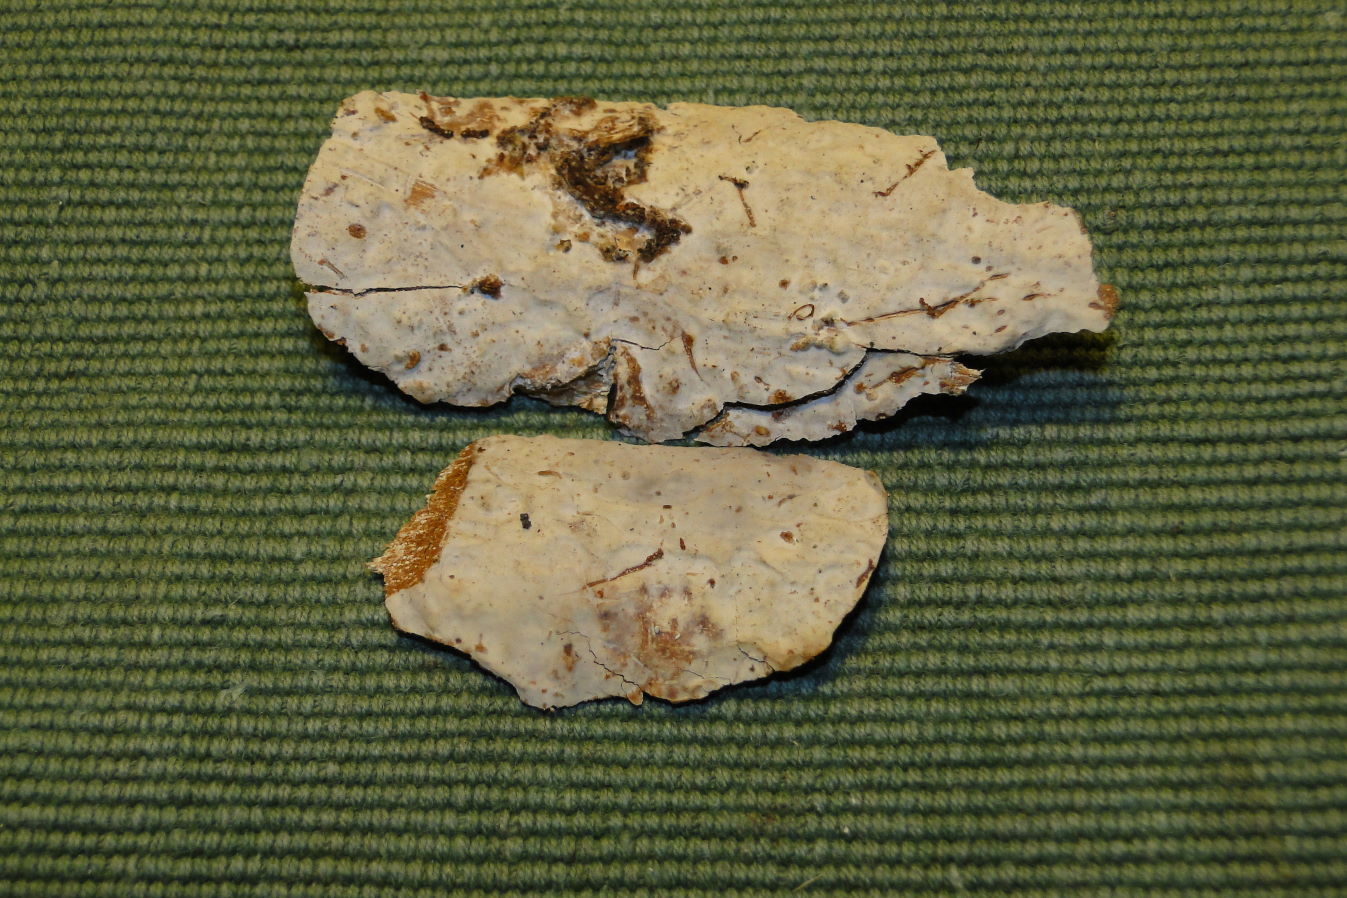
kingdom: Fungi
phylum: Basidiomycota
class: Agaricomycetes
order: Corticiales
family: Vuilleminiaceae
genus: Vuilleminia
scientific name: Vuilleminia coryli
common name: hassel-barksprænger
